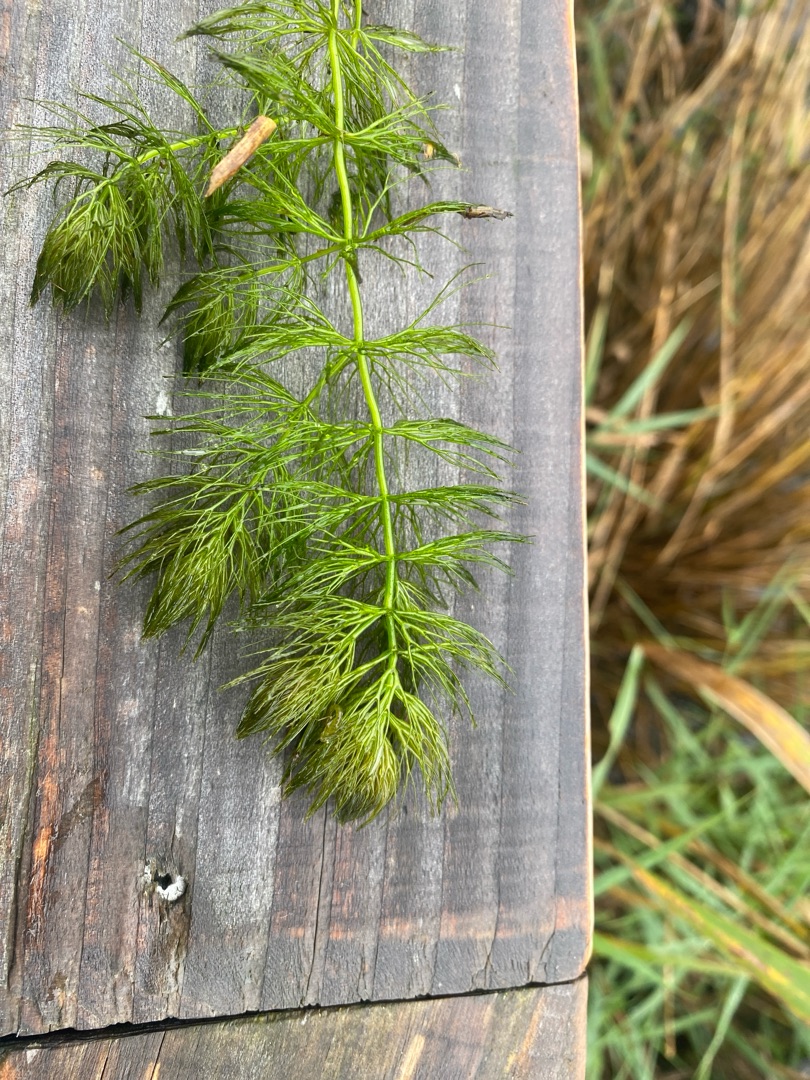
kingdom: Plantae
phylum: Tracheophyta
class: Magnoliopsida
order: Ceratophyllales
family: Ceratophyllaceae
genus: Ceratophyllum
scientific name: Ceratophyllum submersum
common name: Tornløs hornblad
